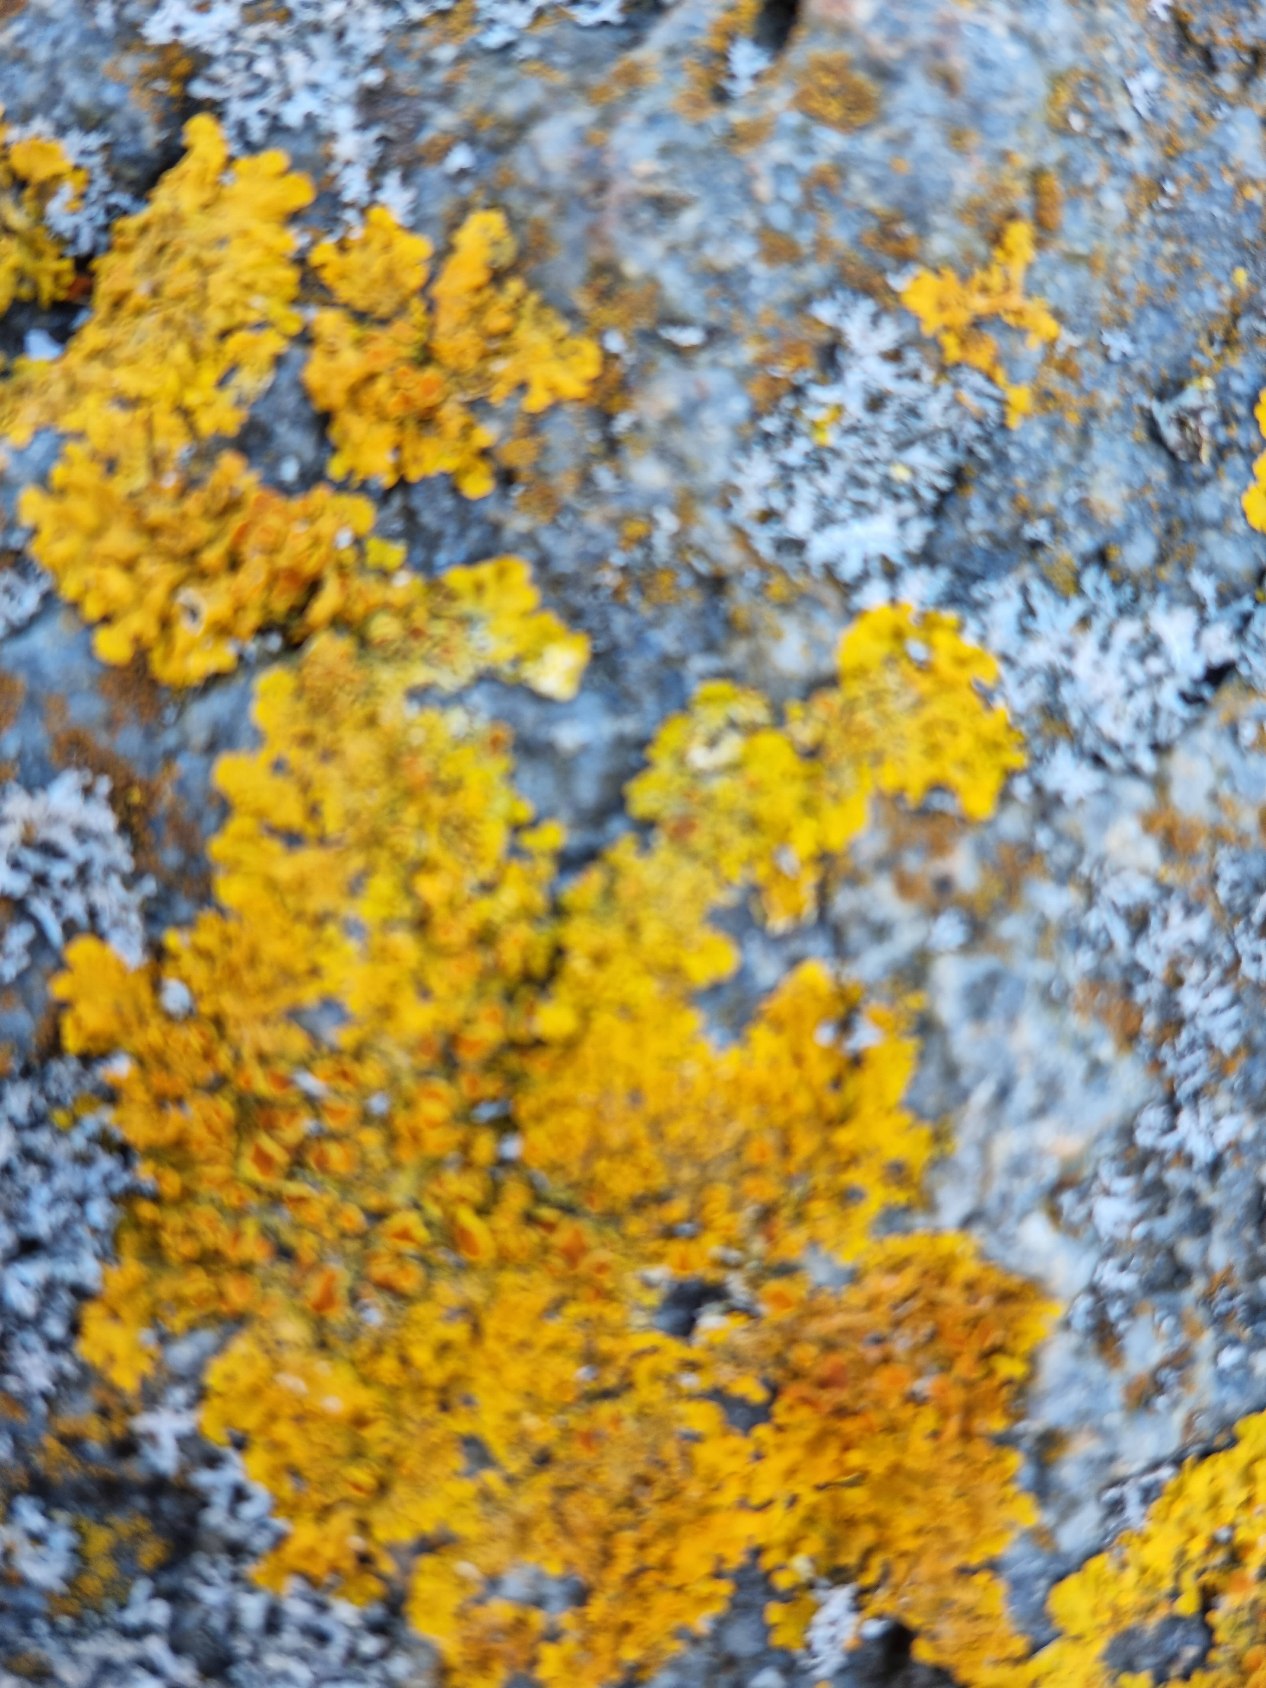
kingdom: Fungi
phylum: Ascomycota
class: Lecanoromycetes
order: Teloschistales
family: Teloschistaceae
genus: Xanthoria
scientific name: Xanthoria parietina
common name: Almindelig væggelav
